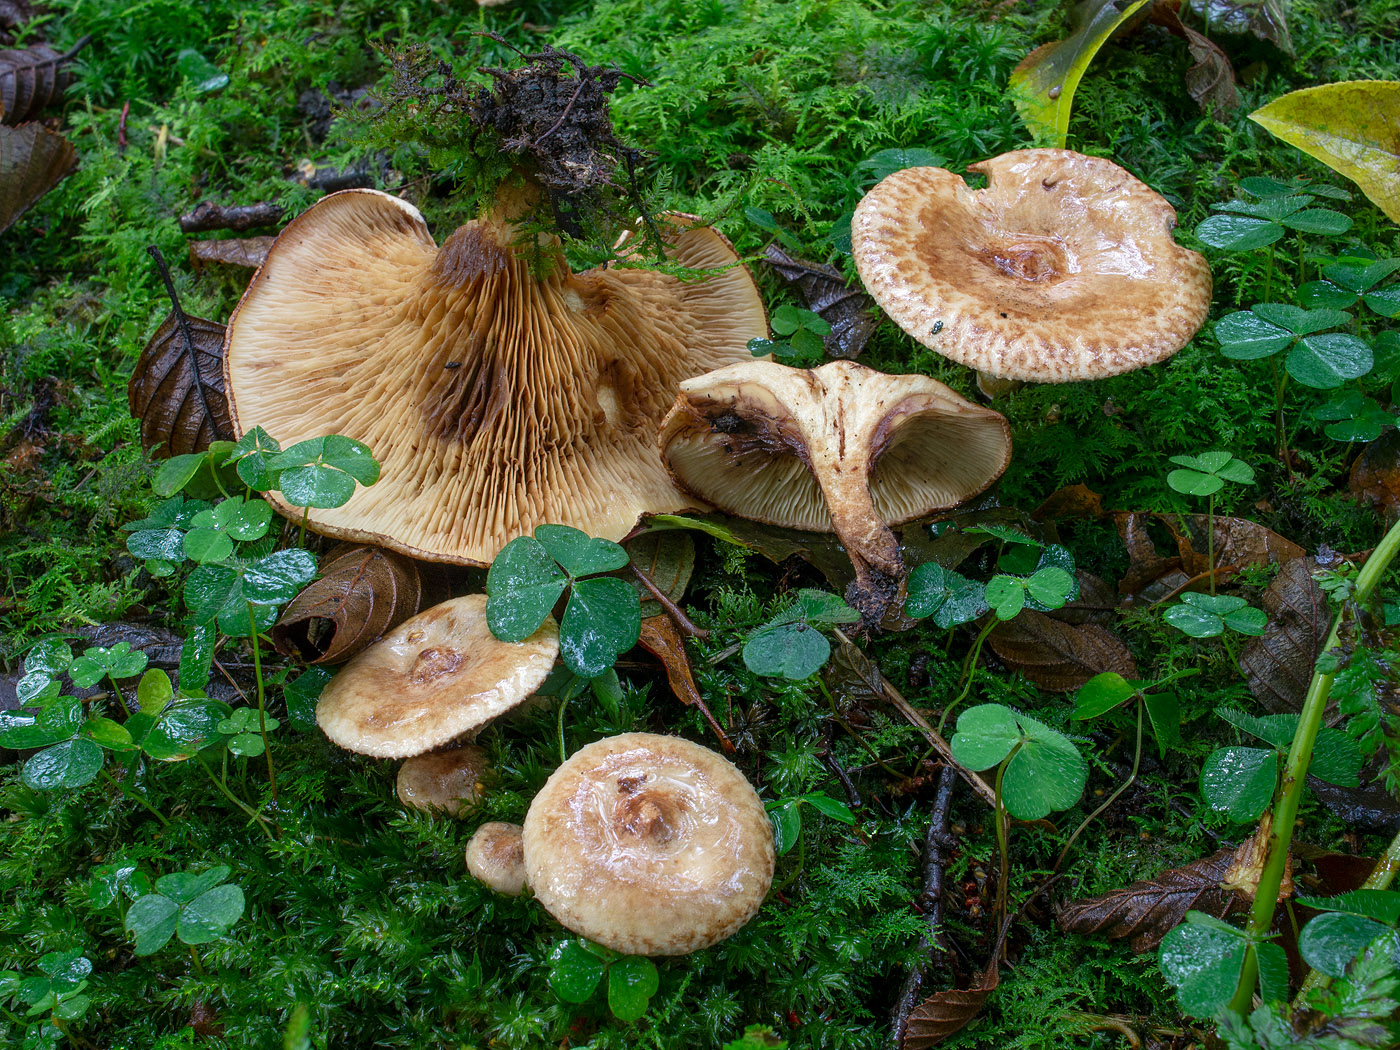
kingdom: Fungi
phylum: Basidiomycota
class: Agaricomycetes
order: Boletales
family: Paxillaceae
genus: Paxillus
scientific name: Paxillus rubicundulus
